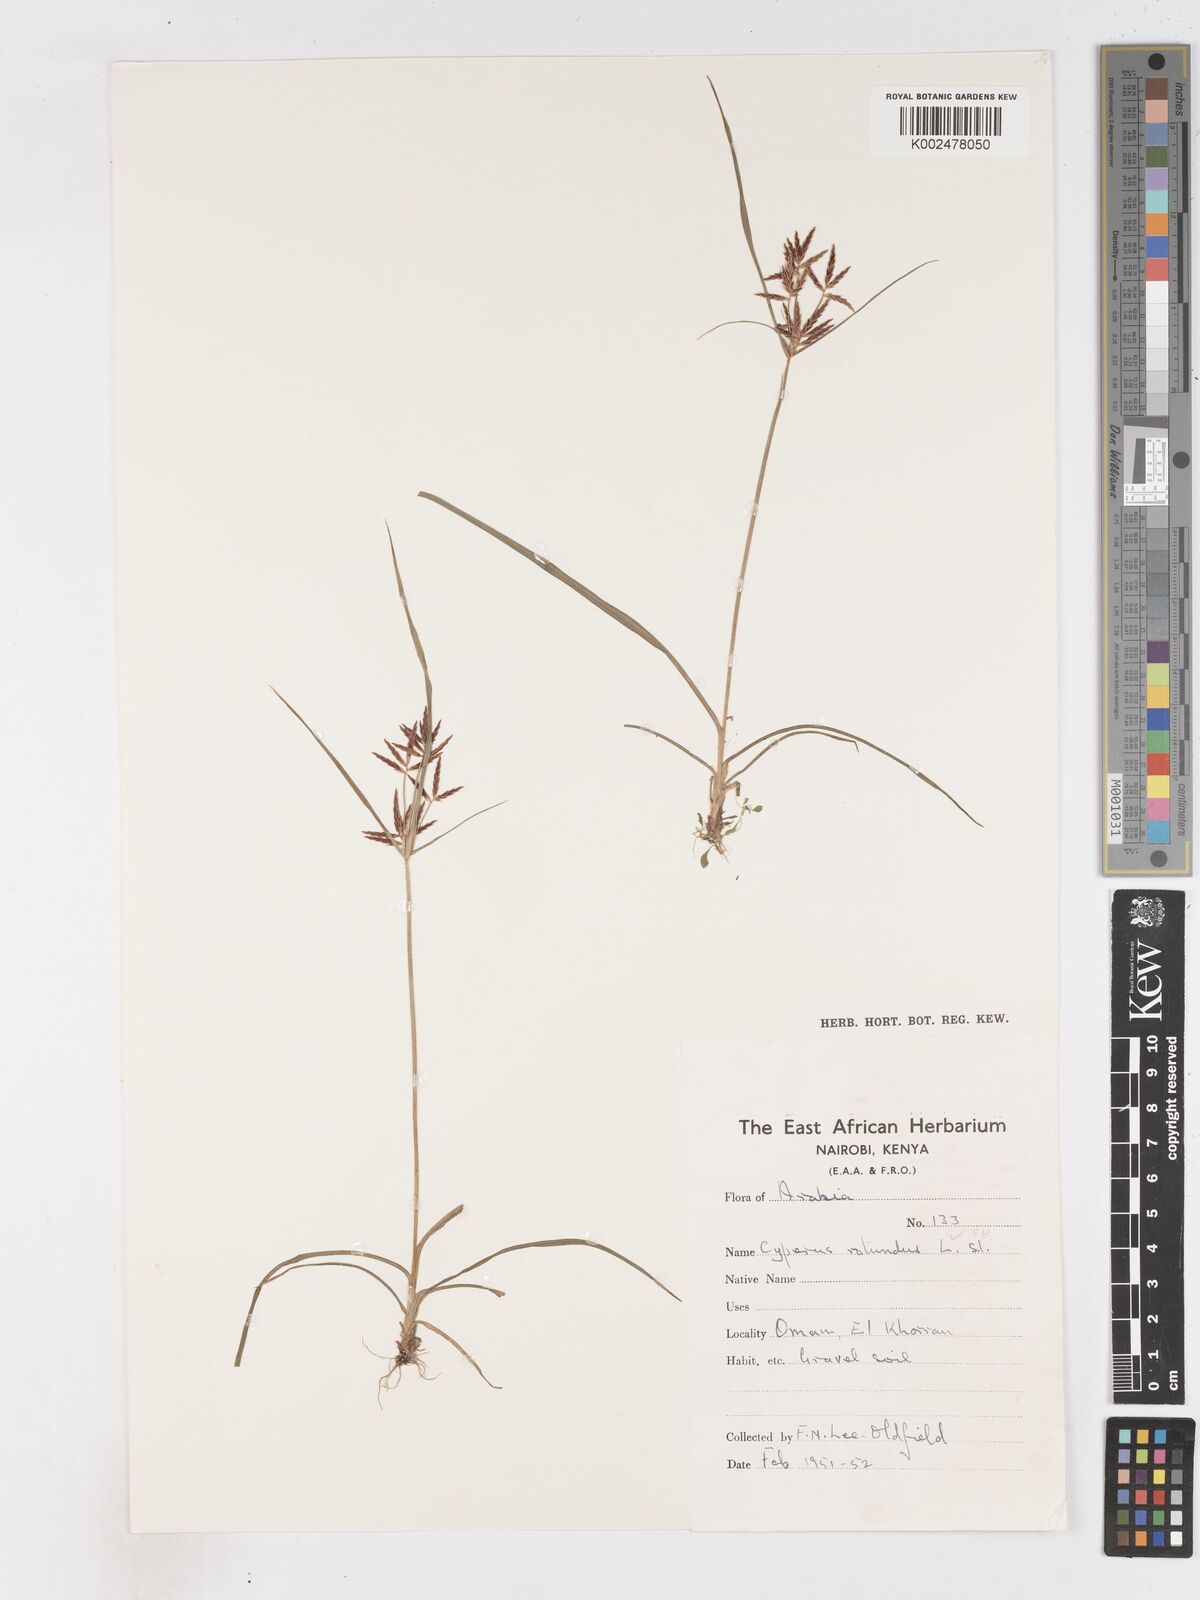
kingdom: Plantae
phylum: Tracheophyta
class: Liliopsida
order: Poales
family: Cyperaceae
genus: Cyperus
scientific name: Cyperus rotundus
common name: Nutgrass
